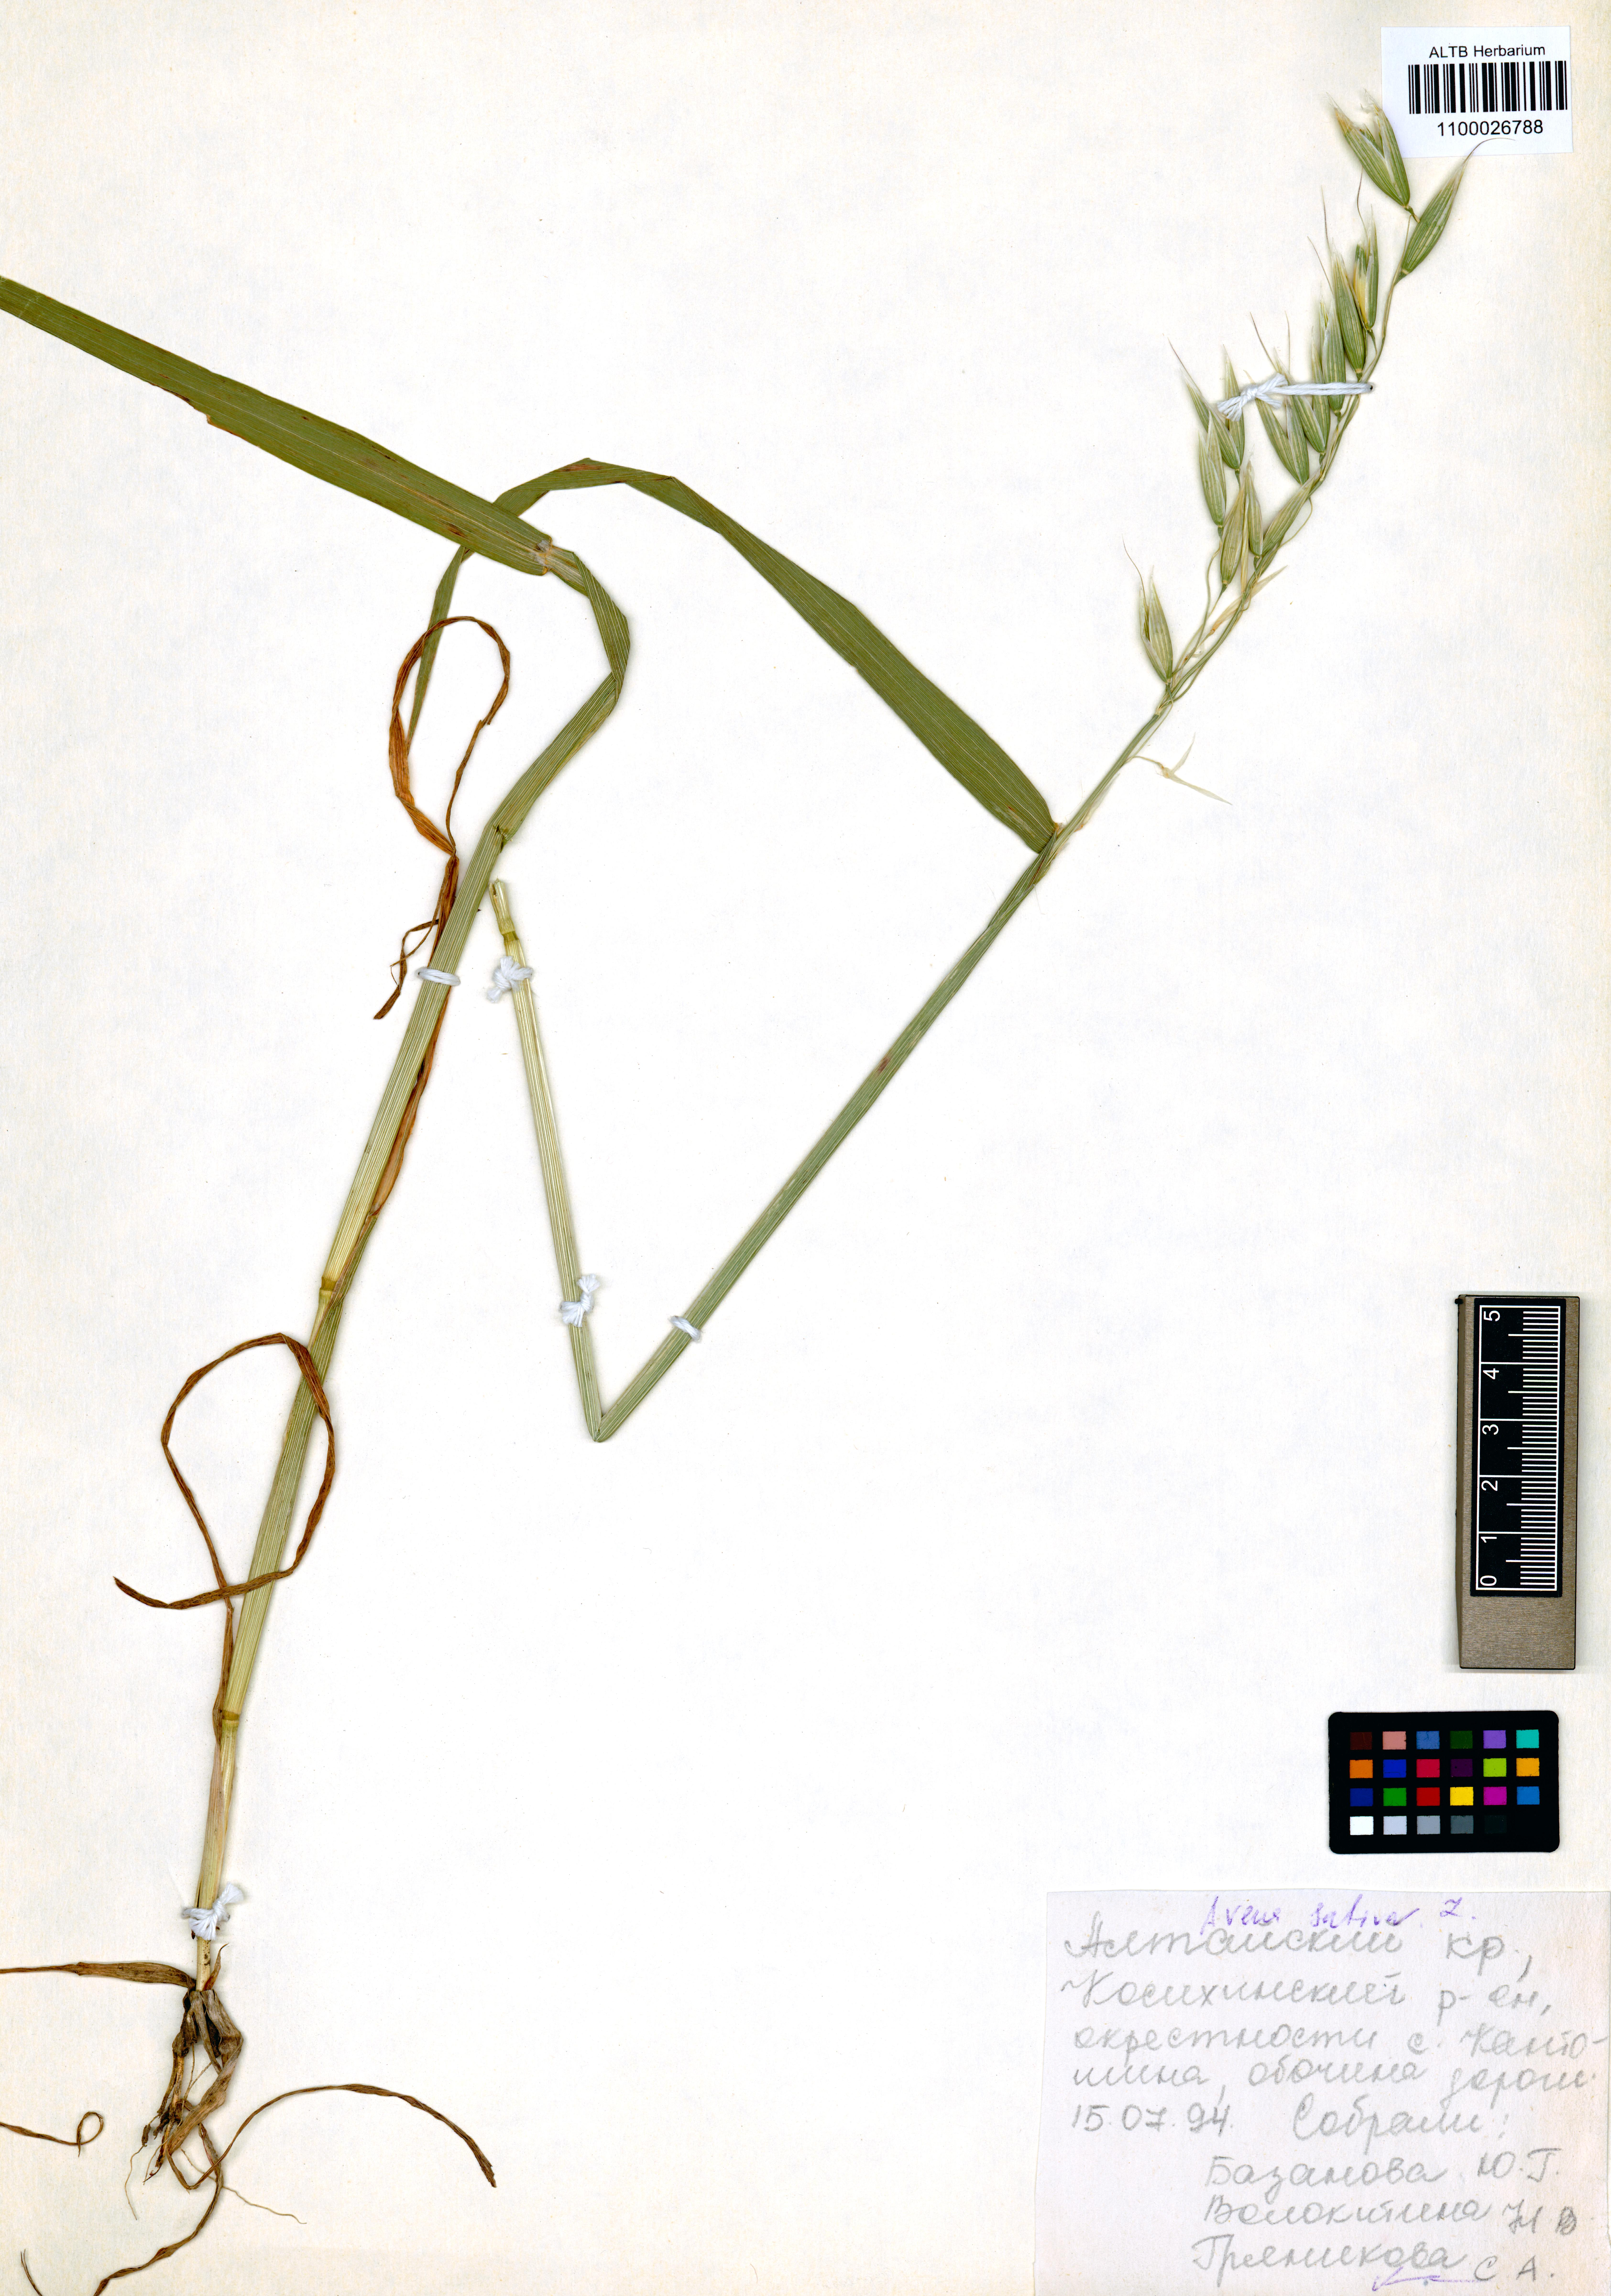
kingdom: Plantae
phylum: Tracheophyta
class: Liliopsida
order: Poales
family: Poaceae
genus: Avena
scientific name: Avena sativa
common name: Oat
